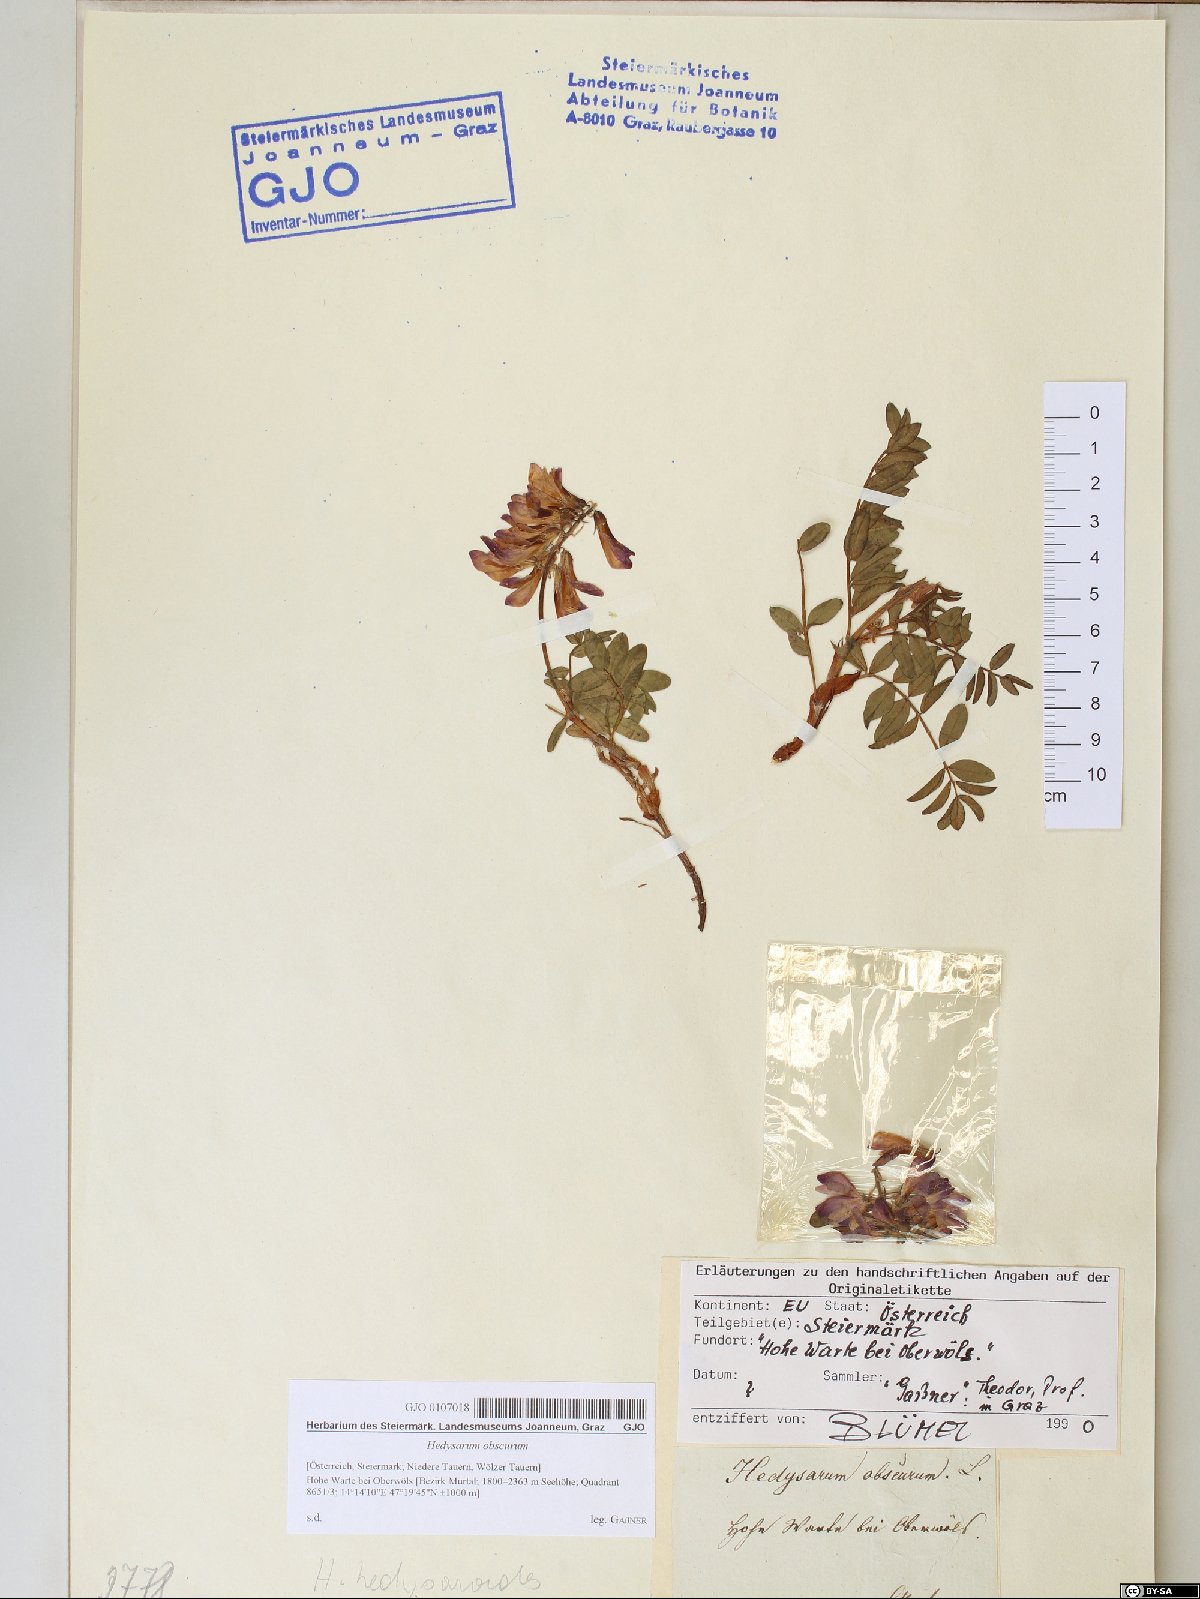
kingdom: Plantae
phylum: Tracheophyta
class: Magnoliopsida
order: Fabales
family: Fabaceae
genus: Hedysarum
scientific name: Hedysarum hedysaroides
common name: Alpine french-honeysuckle
